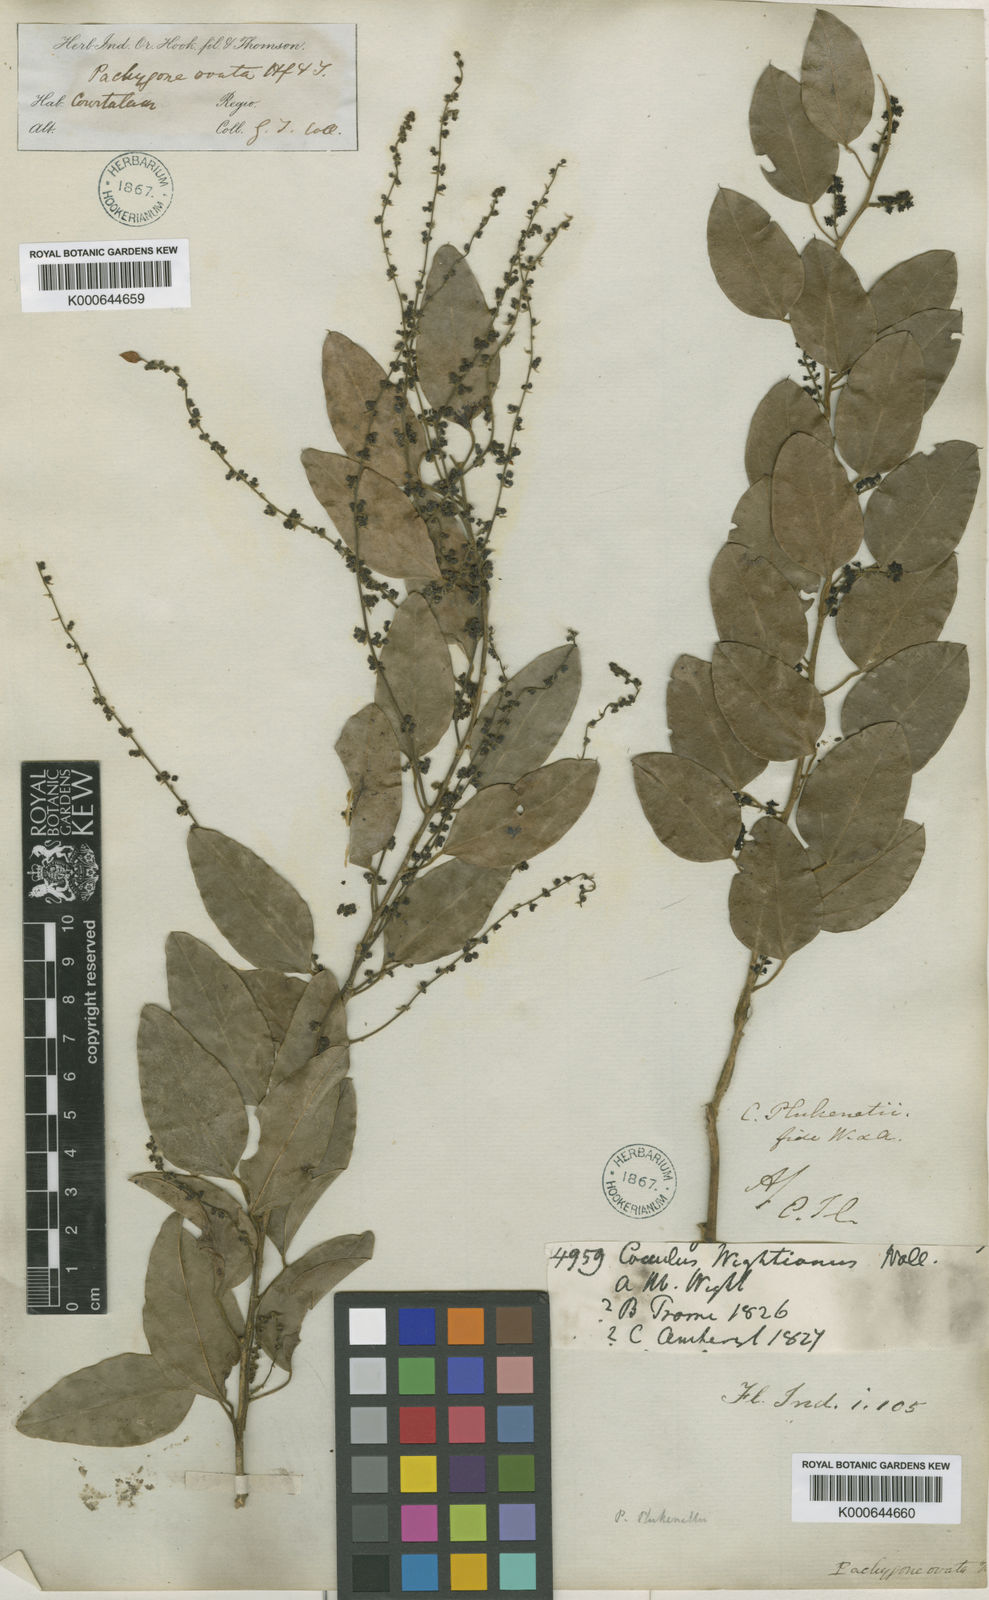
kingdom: Plantae
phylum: Tracheophyta
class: Magnoliopsida
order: Ranunculales
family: Menispermaceae
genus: Pachygone
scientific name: Pachygone ovata
